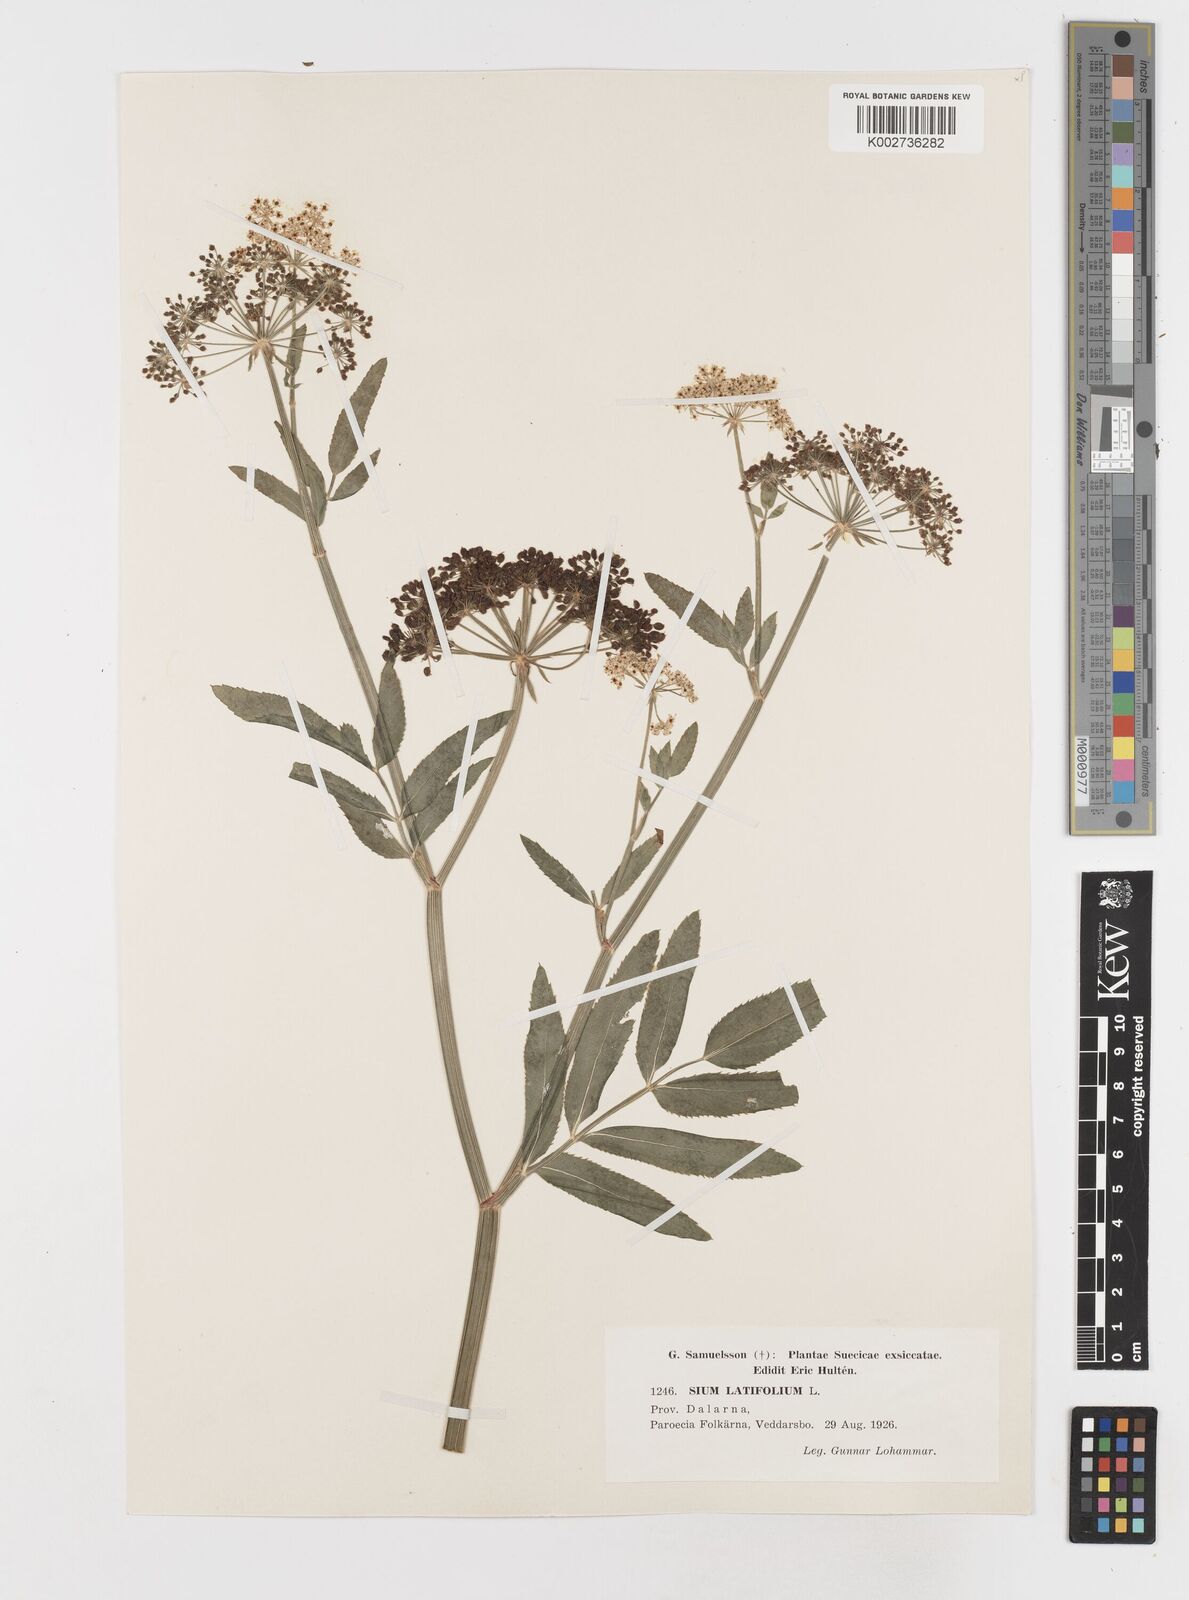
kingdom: Plantae
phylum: Tracheophyta
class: Magnoliopsida
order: Apiales
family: Apiaceae
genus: Sium
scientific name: Sium latifolium
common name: Greater water-parsnip
